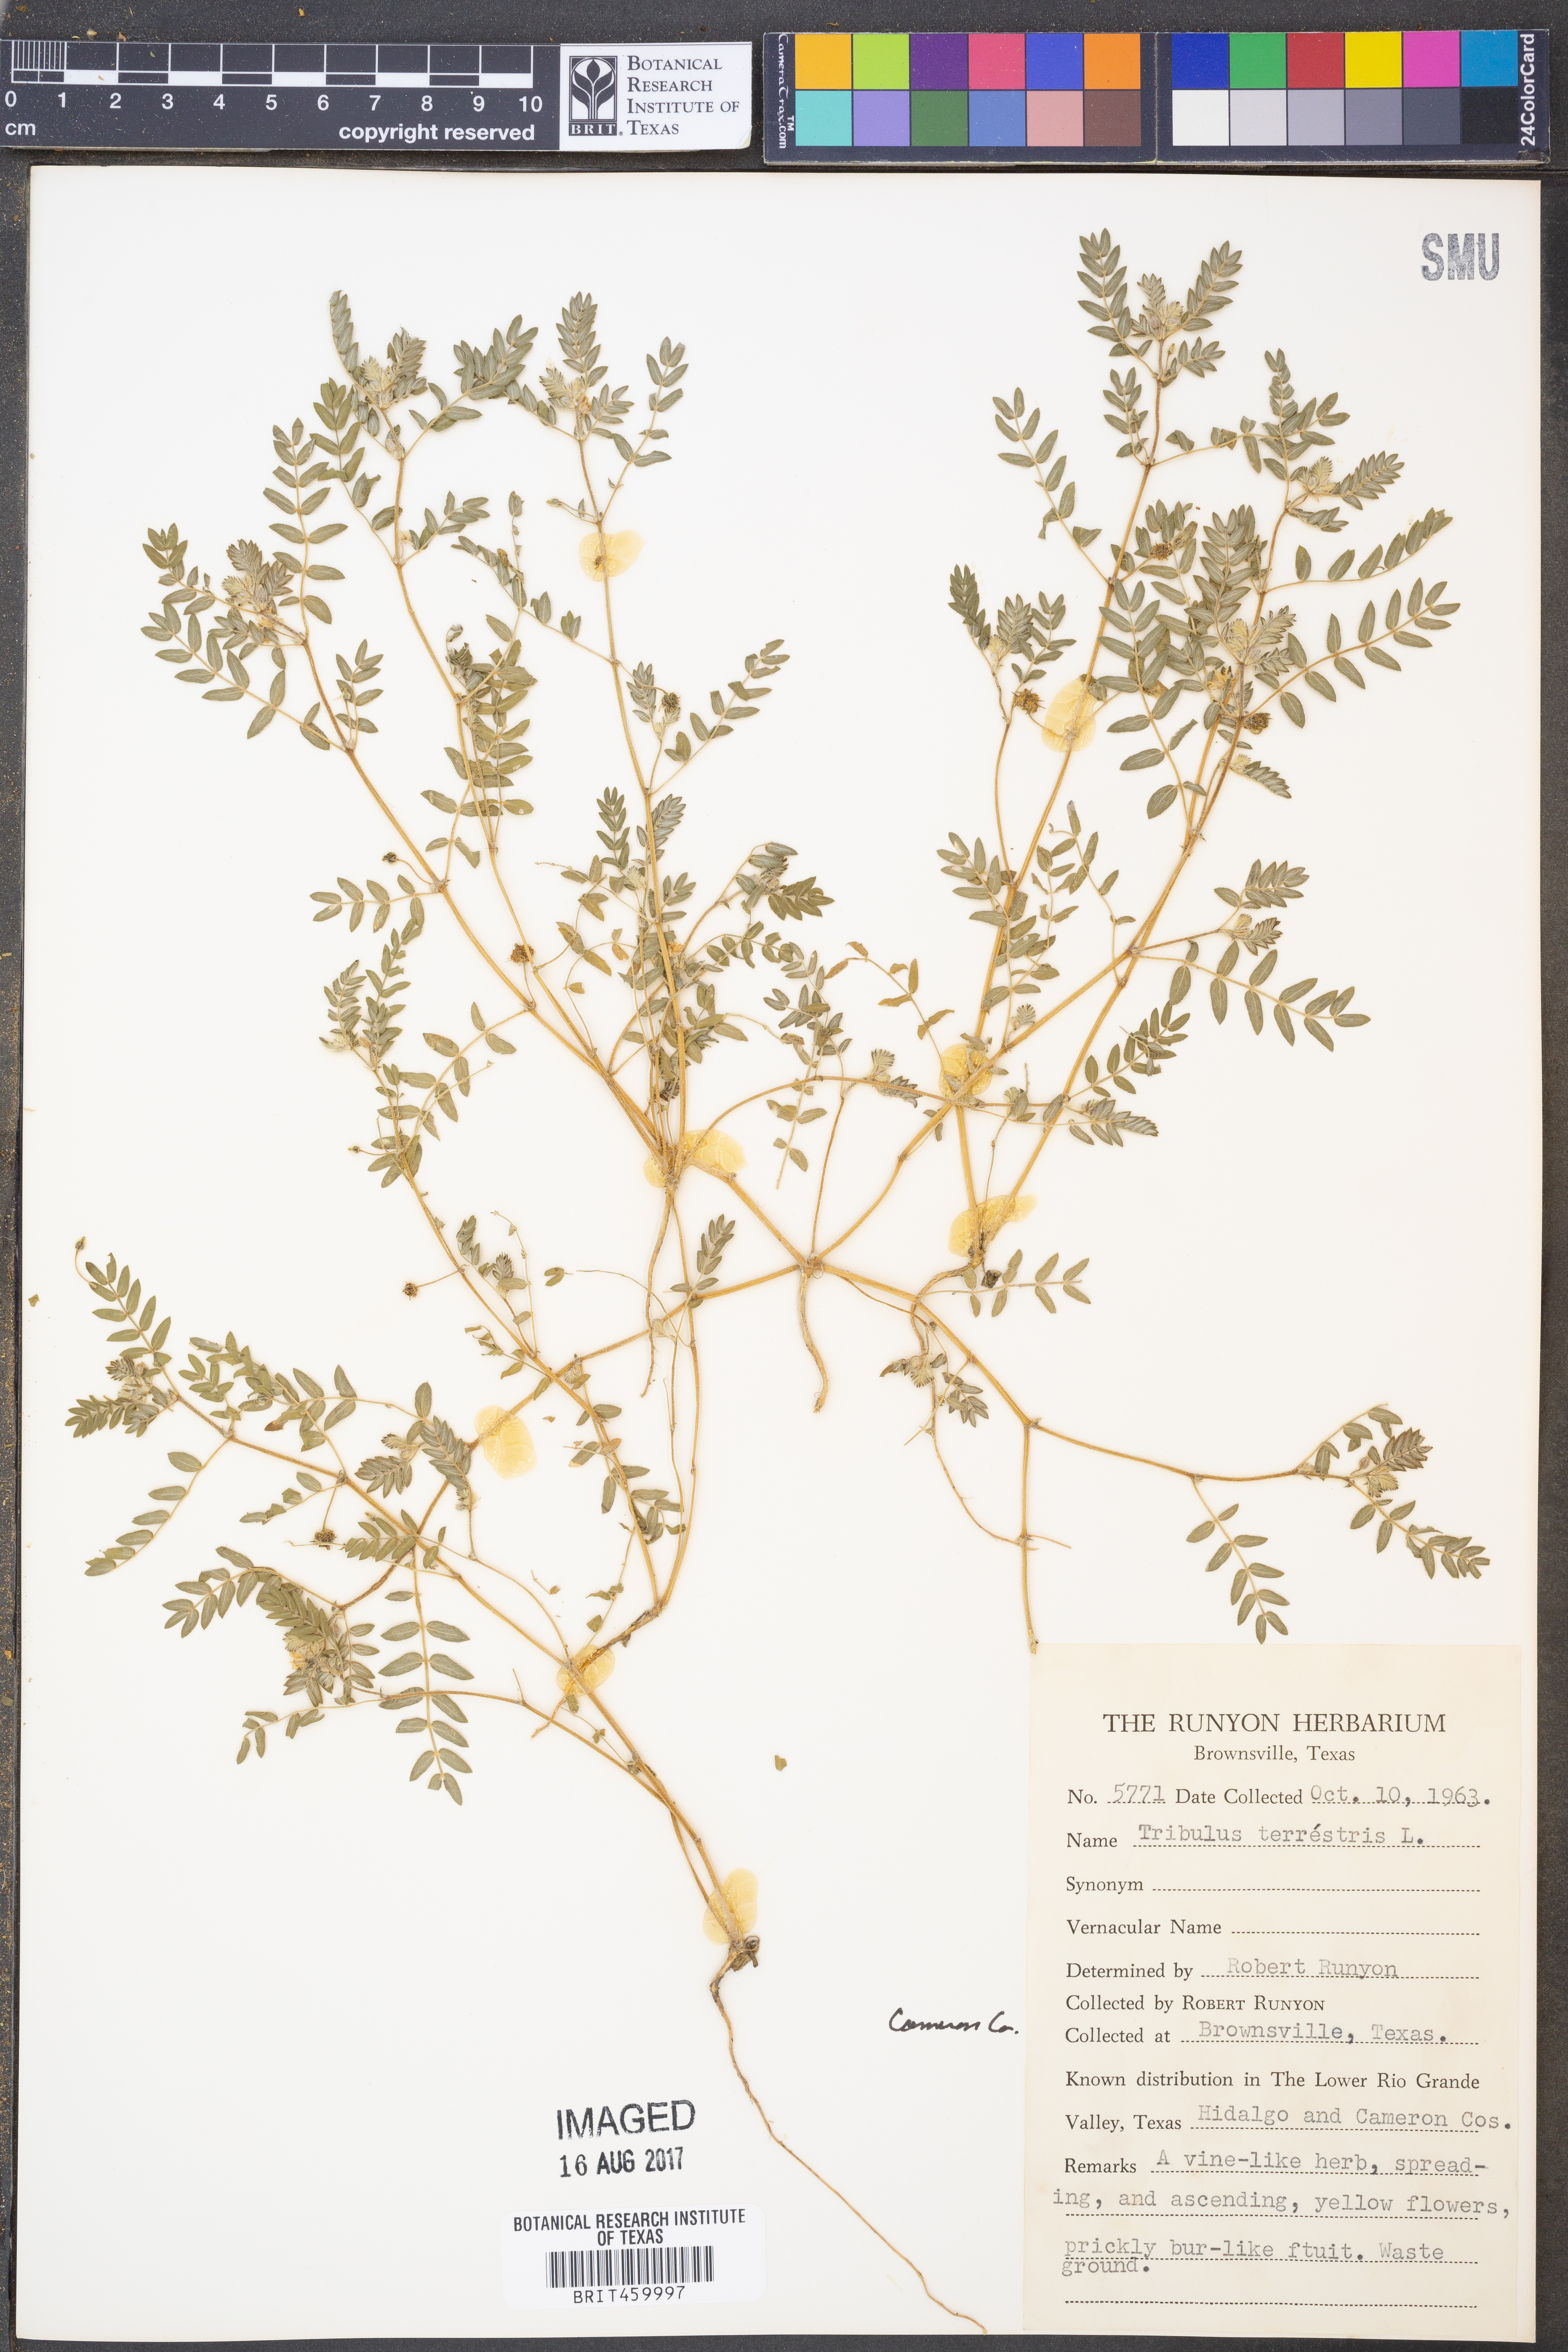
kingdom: Plantae
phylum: Tracheophyta
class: Magnoliopsida
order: Zygophyllales
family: Zygophyllaceae
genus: Tribulus
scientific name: Tribulus terrestris
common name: Puncturevine
